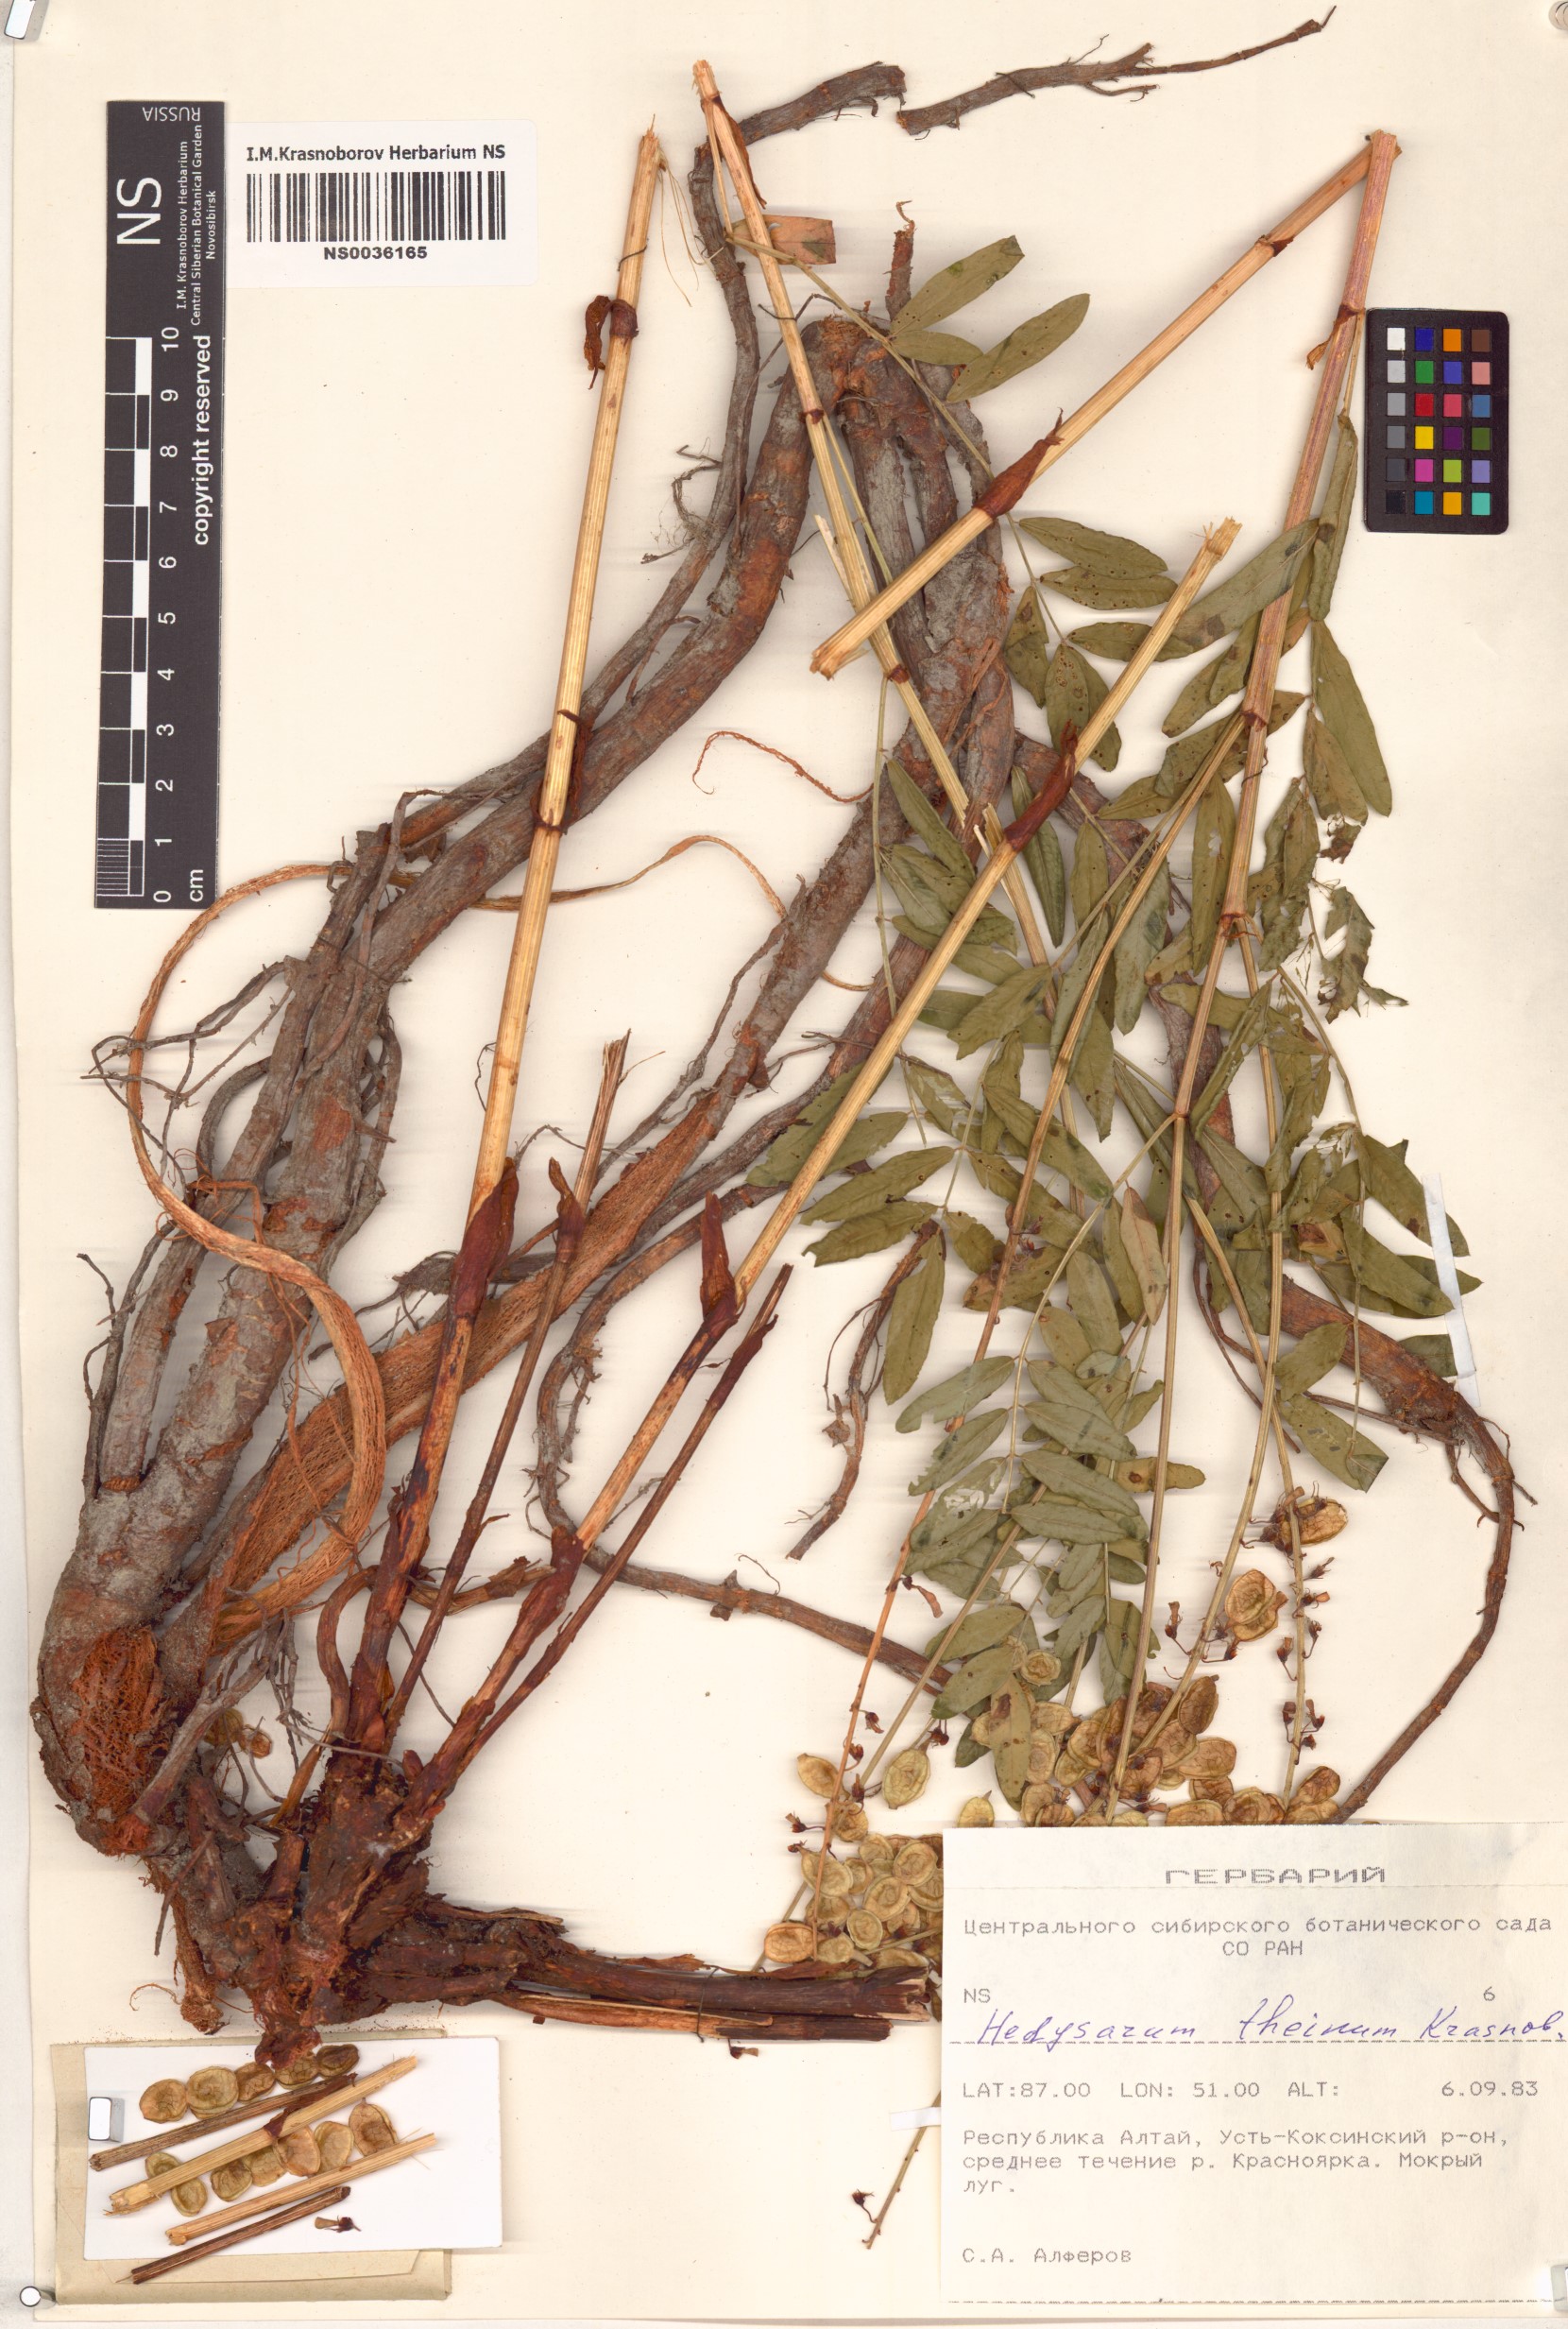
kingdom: Plantae
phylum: Tracheophyta
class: Magnoliopsida
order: Fabales
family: Fabaceae
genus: Hedysarum
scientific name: Hedysarum theinum
